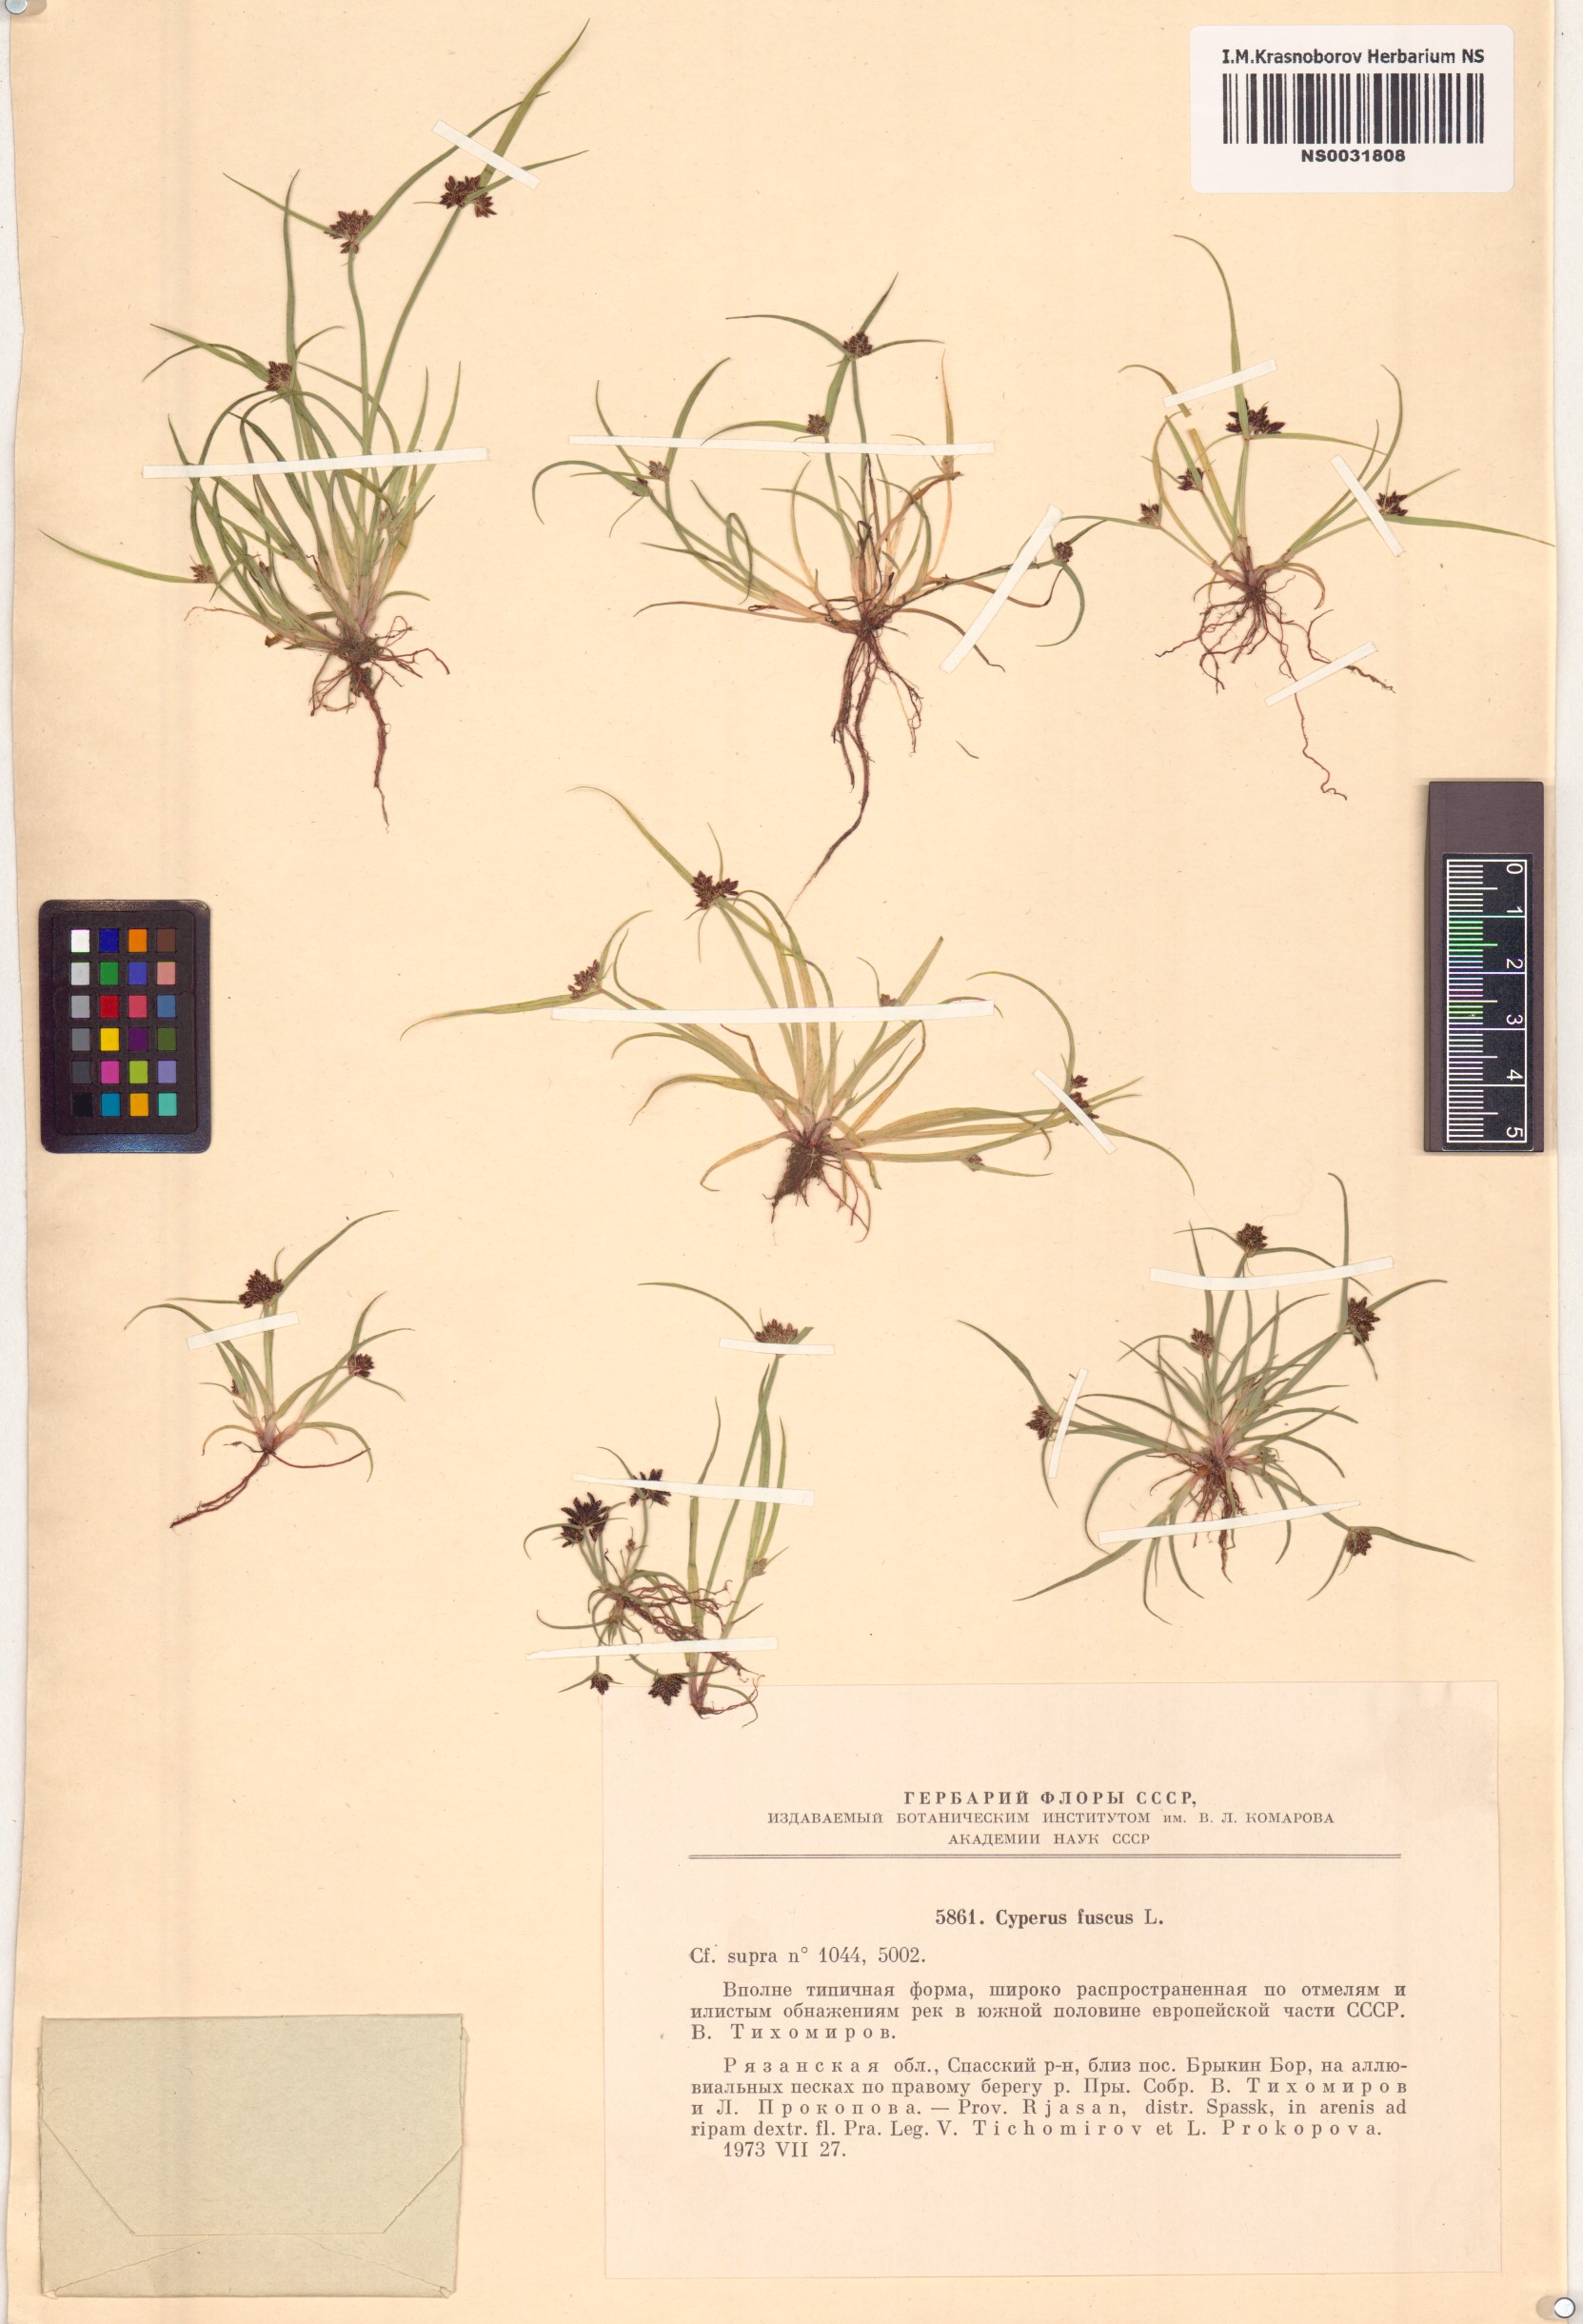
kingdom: Plantae
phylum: Tracheophyta
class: Liliopsida
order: Poales
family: Cyperaceae
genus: Cyperus
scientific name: Cyperus fuscus
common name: Brown galingale
